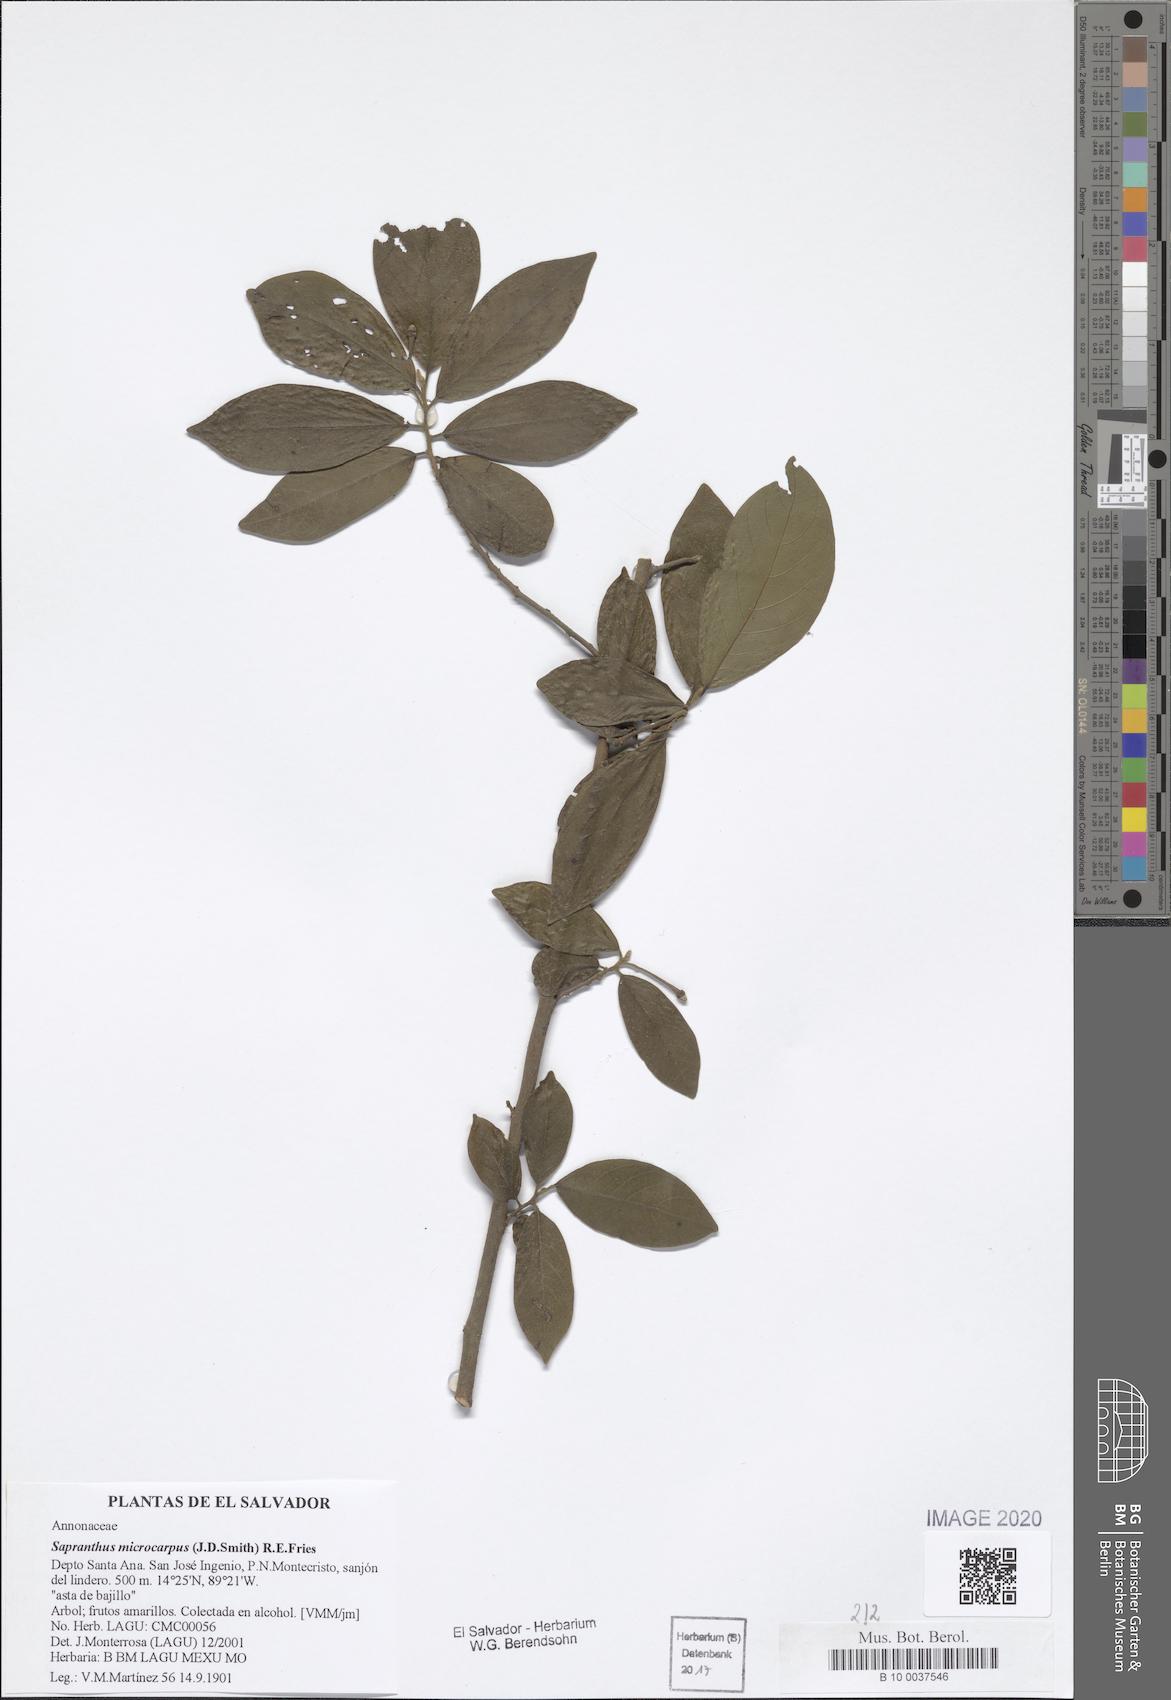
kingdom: Plantae
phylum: Tracheophyta
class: Magnoliopsida
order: Magnoliales
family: Annonaceae
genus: Sapranthus
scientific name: Sapranthus microcarpus
